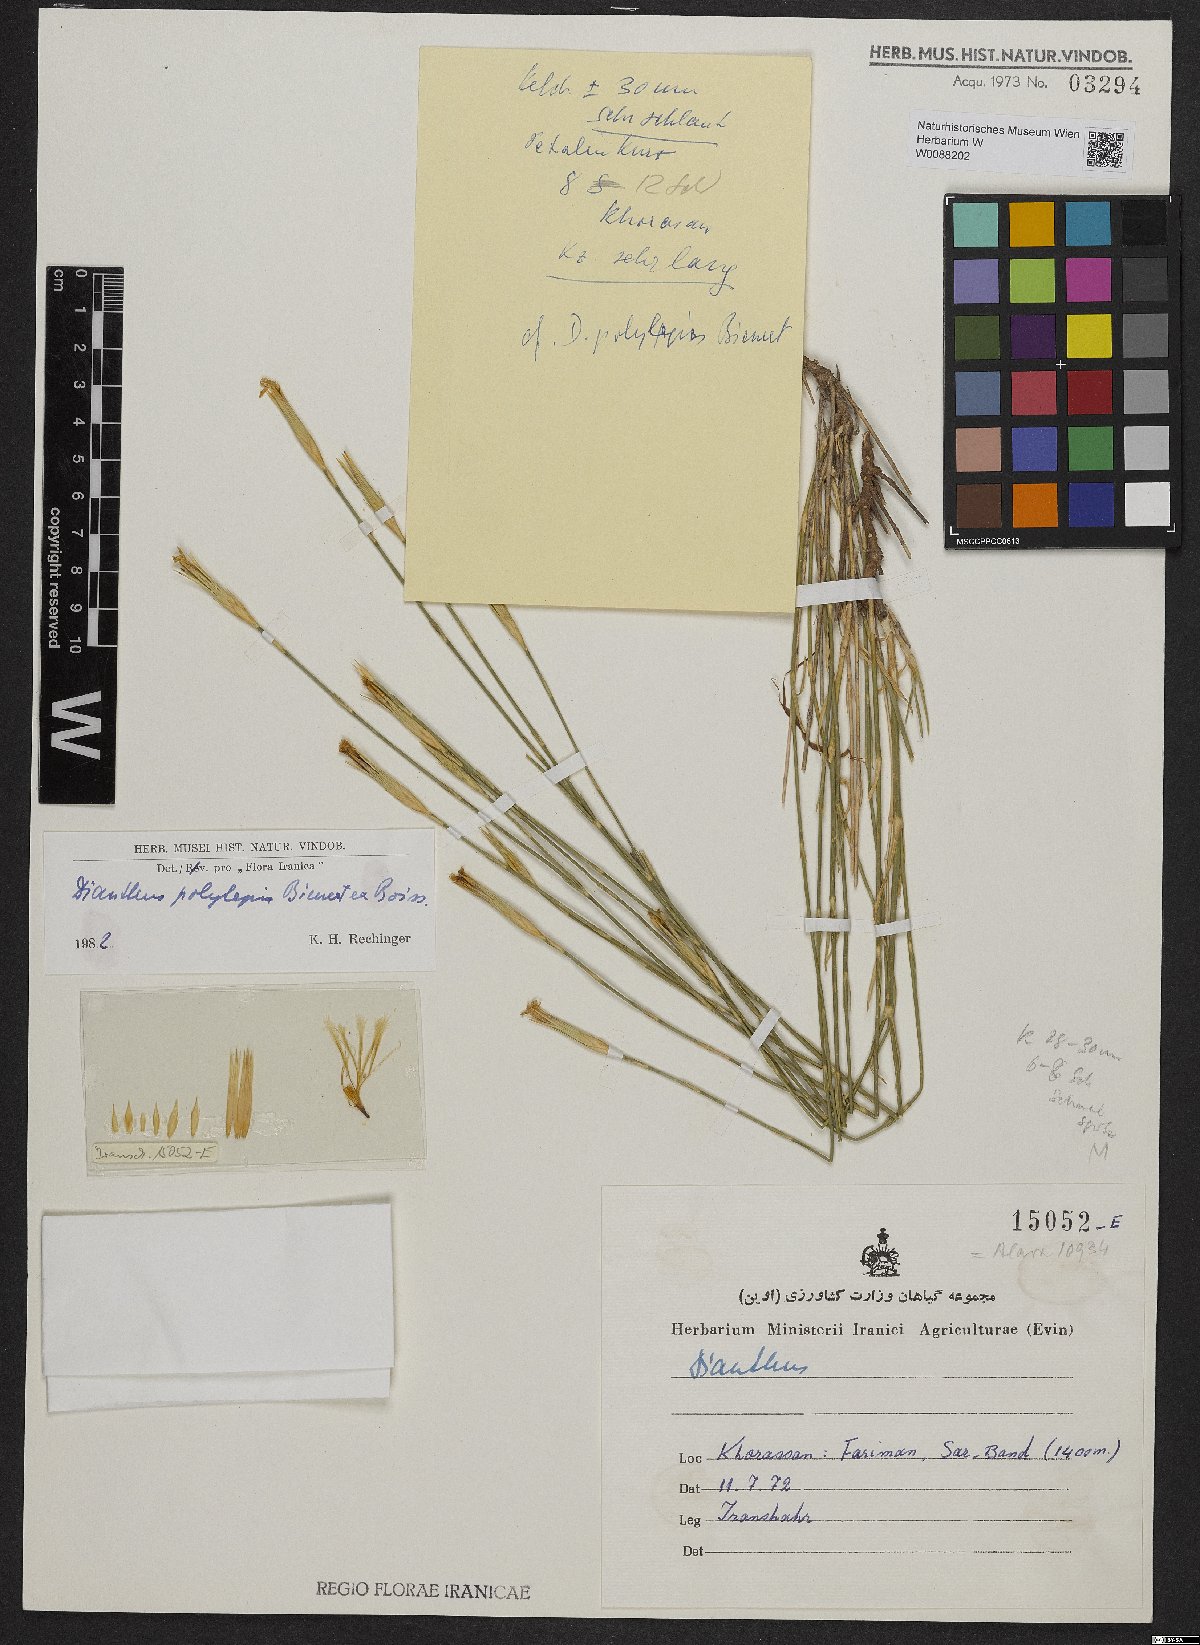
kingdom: Plantae
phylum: Tracheophyta
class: Magnoliopsida
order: Caryophyllales
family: Caryophyllaceae
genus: Dianthus
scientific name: Dianthus polylepis
